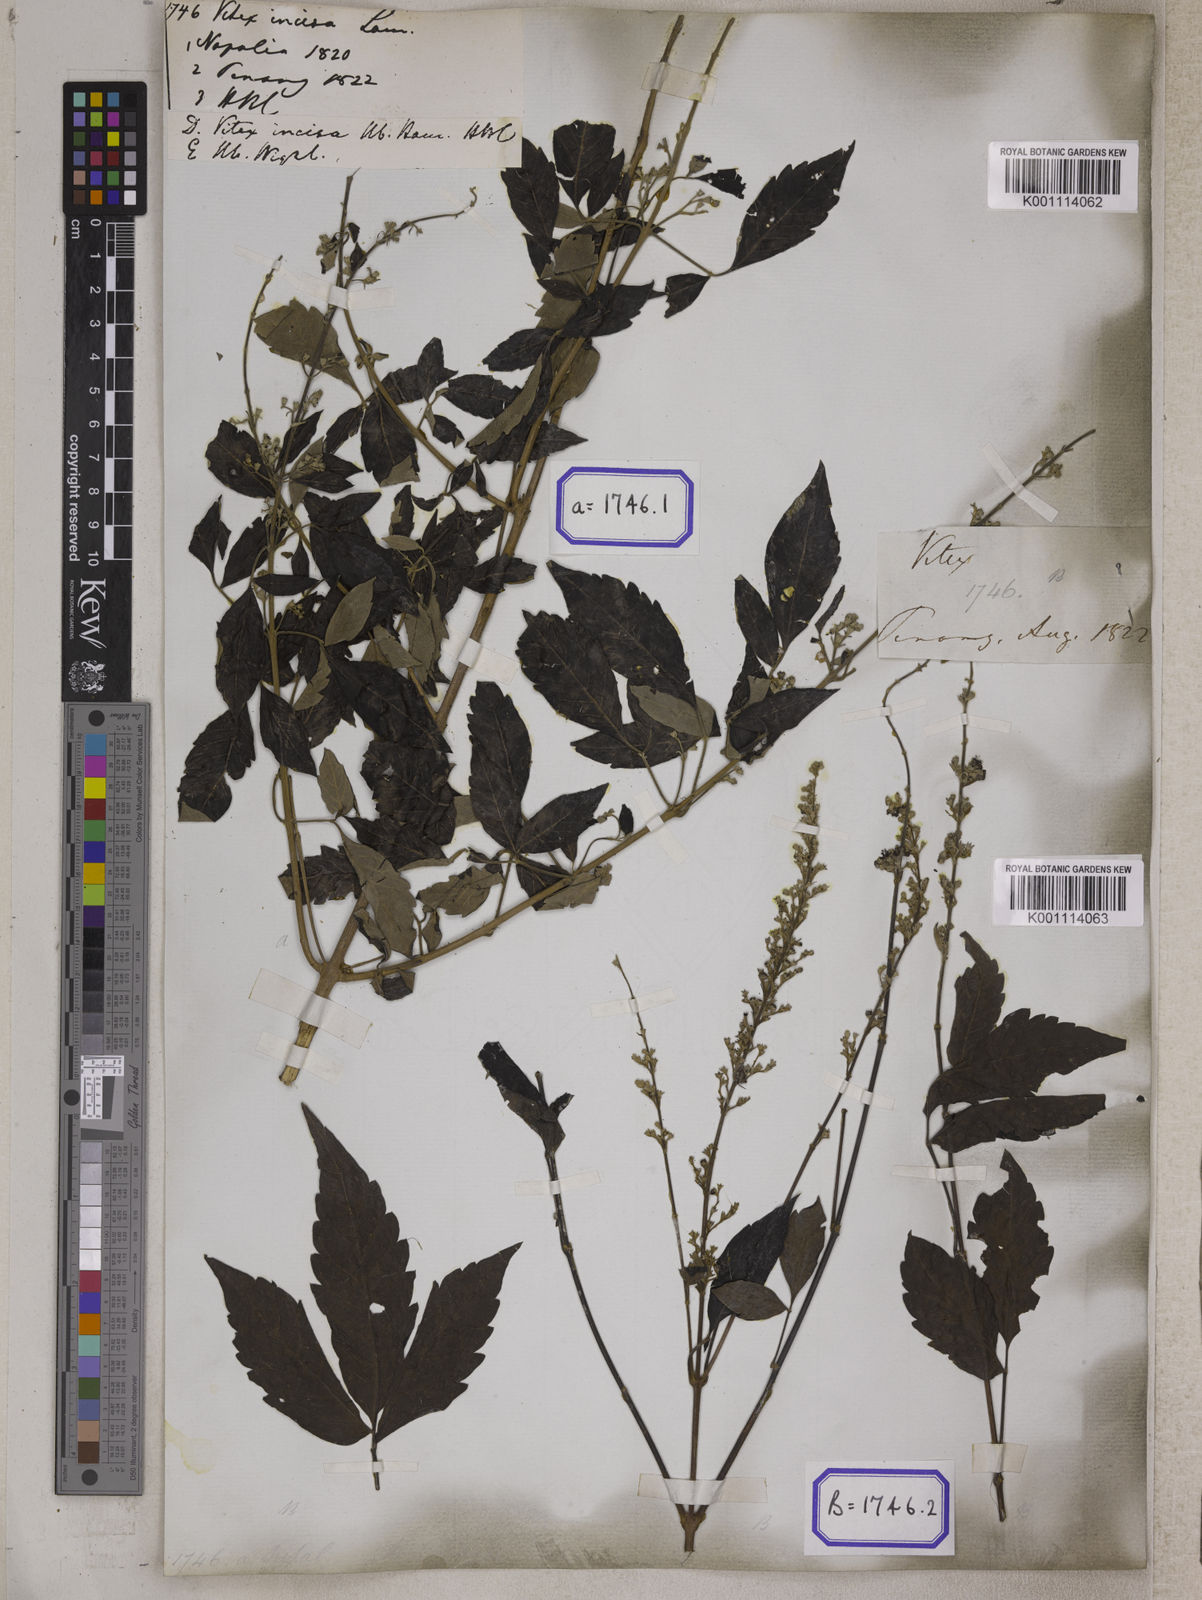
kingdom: Plantae
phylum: Tracheophyta
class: Magnoliopsida
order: Lamiales
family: Lamiaceae
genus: Vitex
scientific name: Vitex negundo
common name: Chinese chastetree
